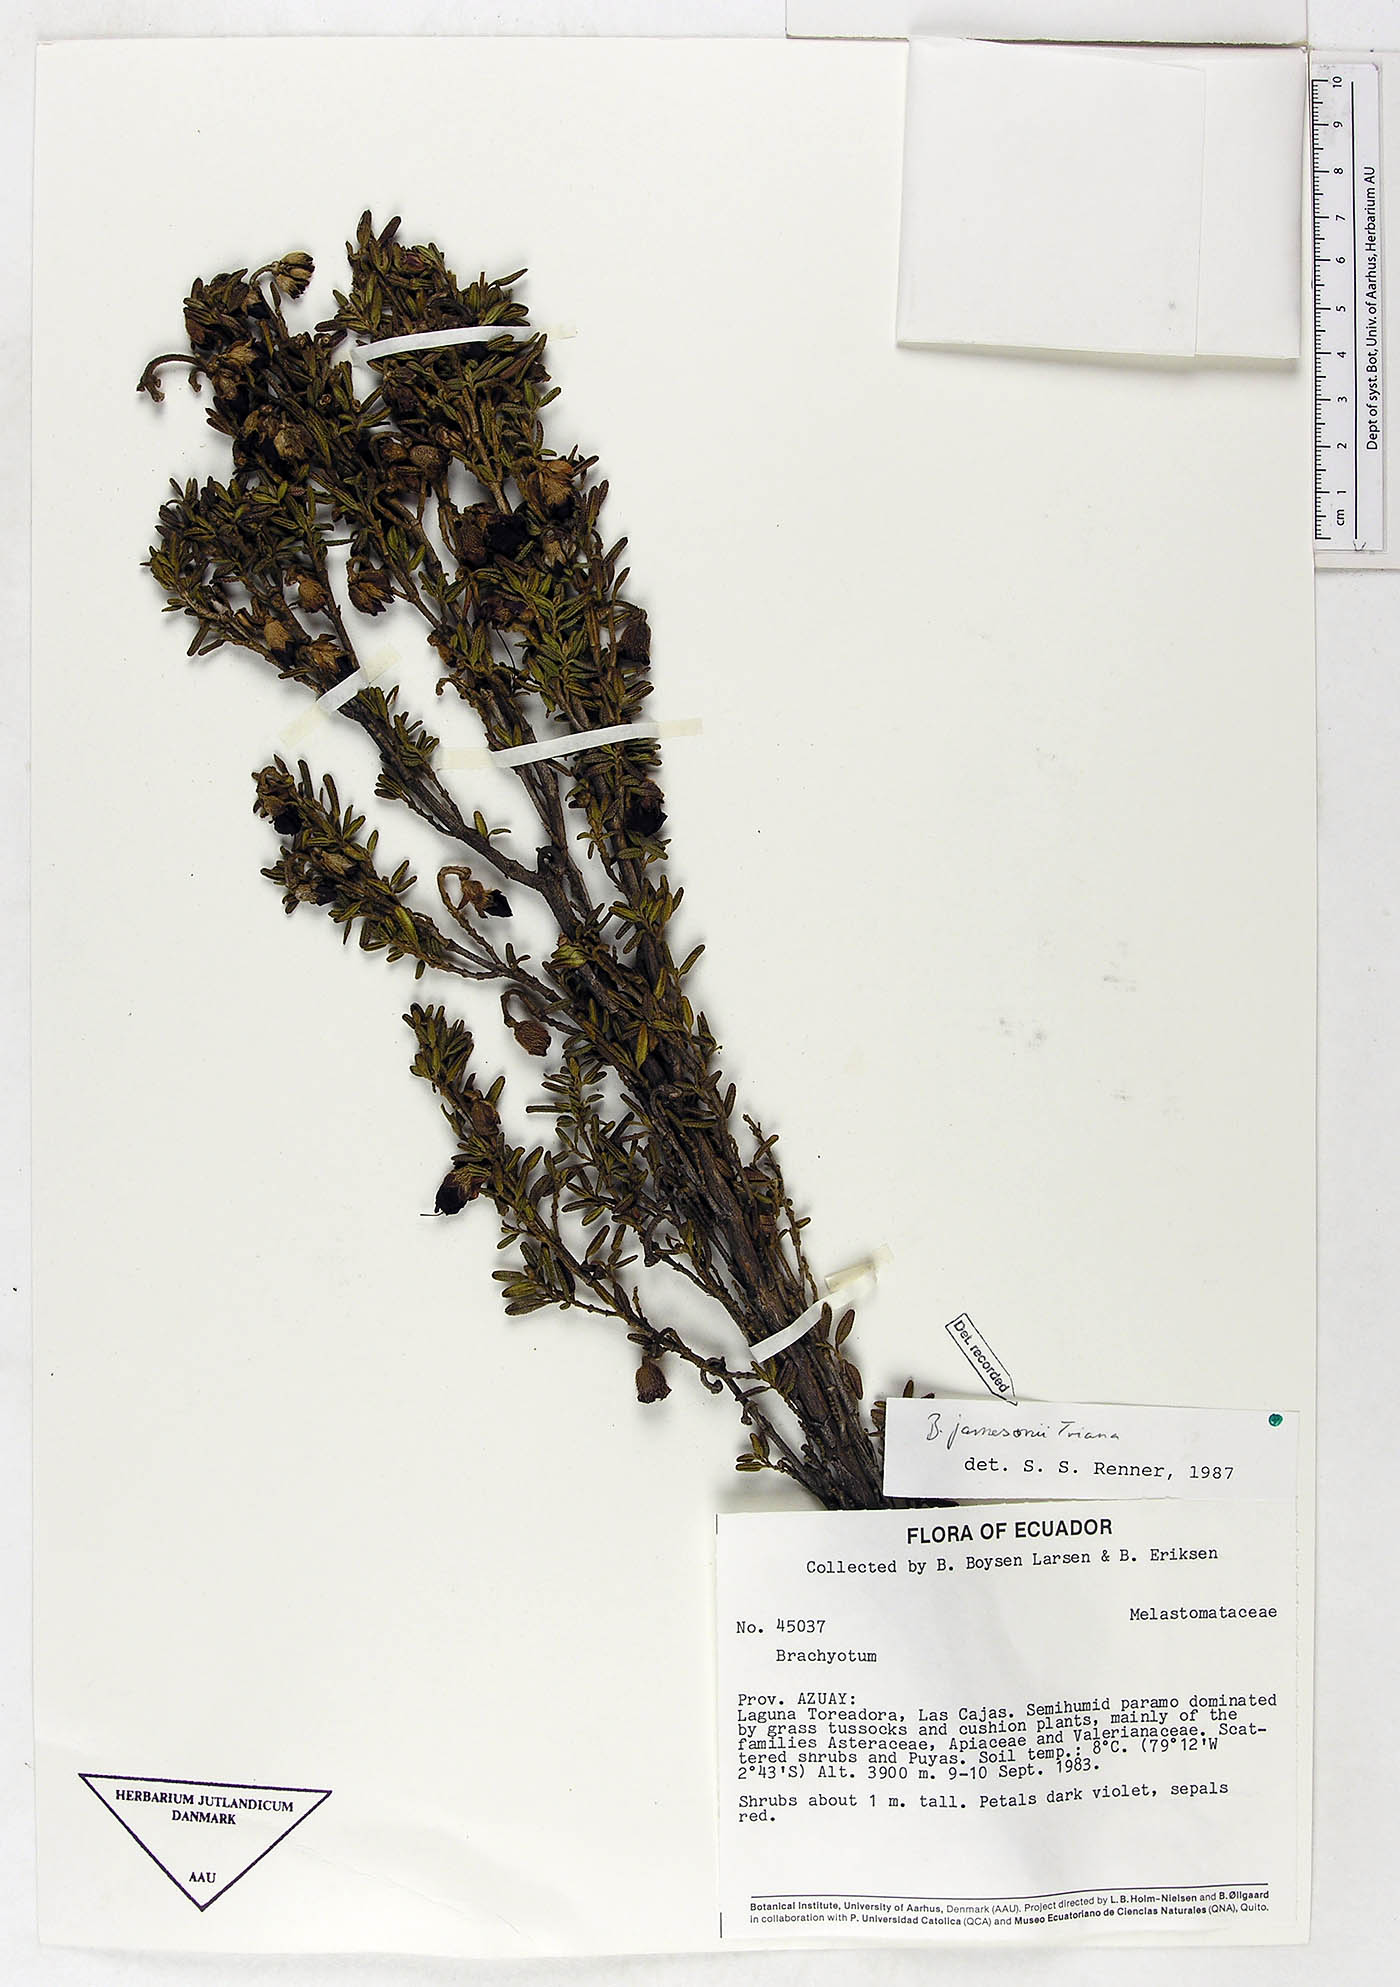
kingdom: Plantae
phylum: Tracheophyta
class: Magnoliopsida
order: Myrtales
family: Melastomataceae
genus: Brachyotum
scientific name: Brachyotum jamesonii
